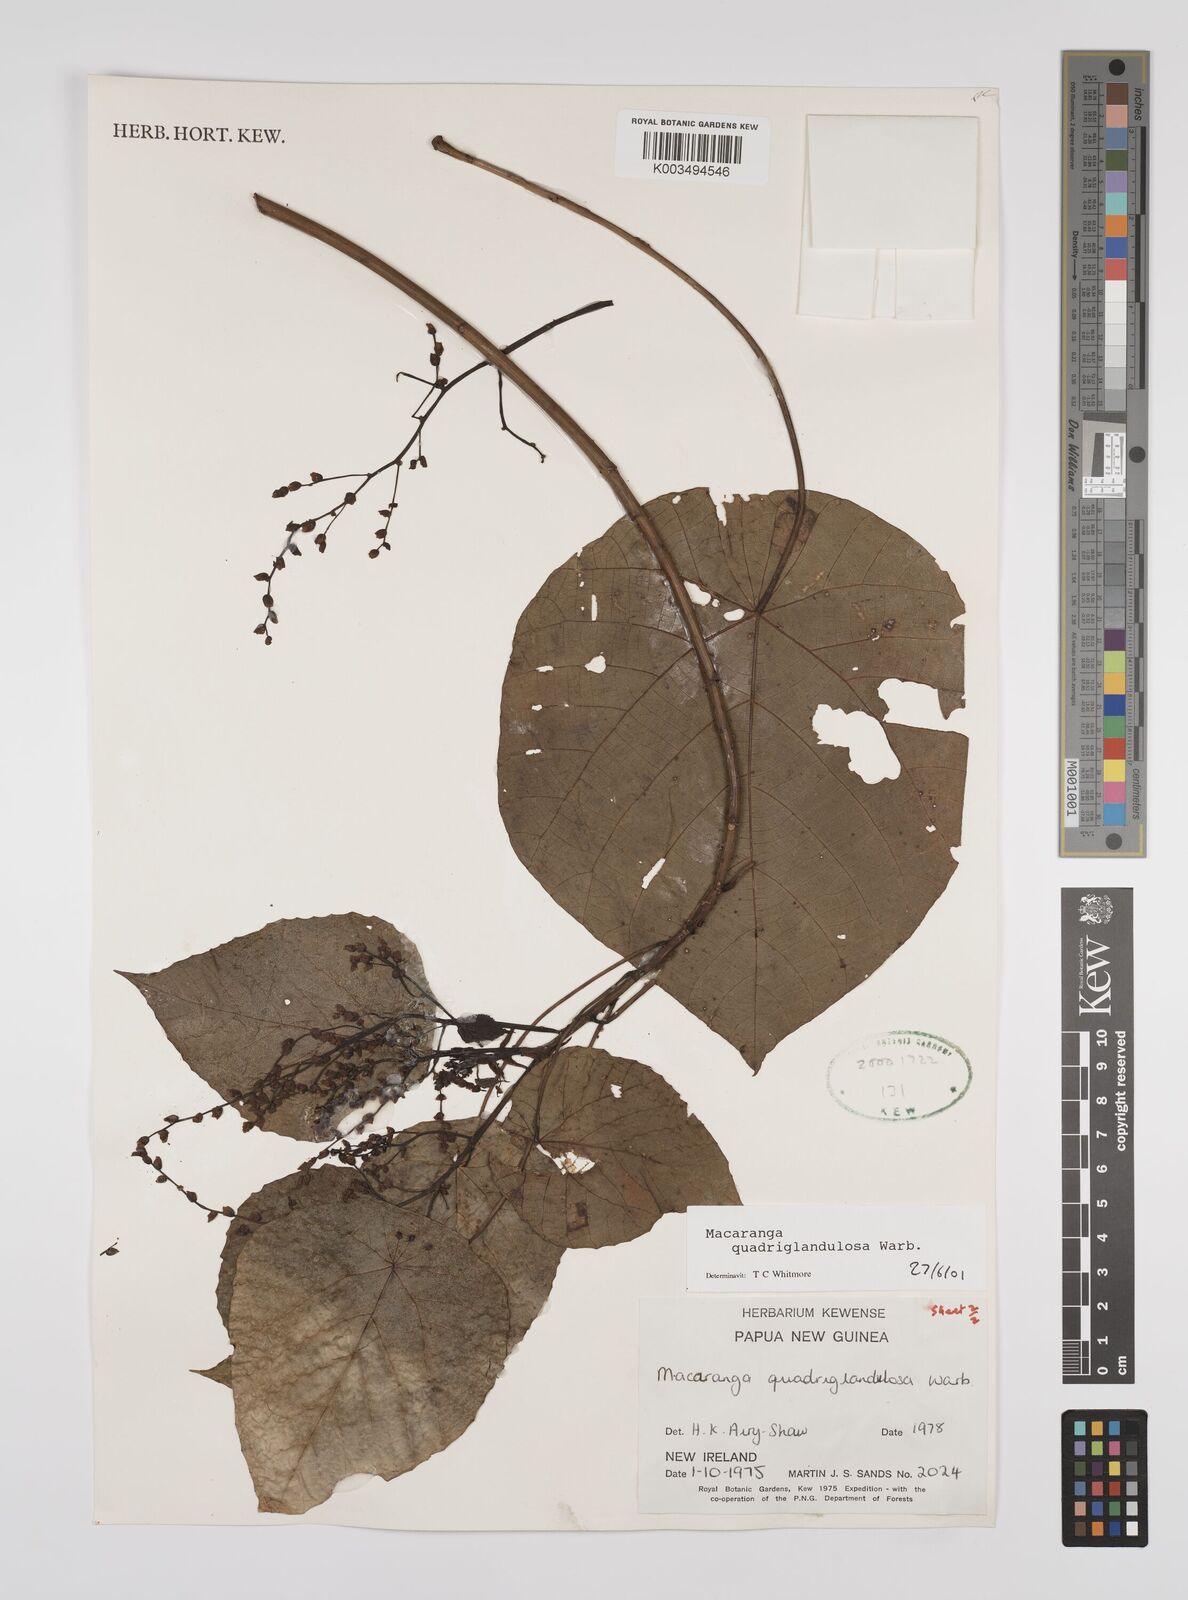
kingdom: Plantae
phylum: Tracheophyta
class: Magnoliopsida
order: Malpighiales
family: Euphorbiaceae
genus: Macaranga
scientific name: Macaranga quadriglandulosa
